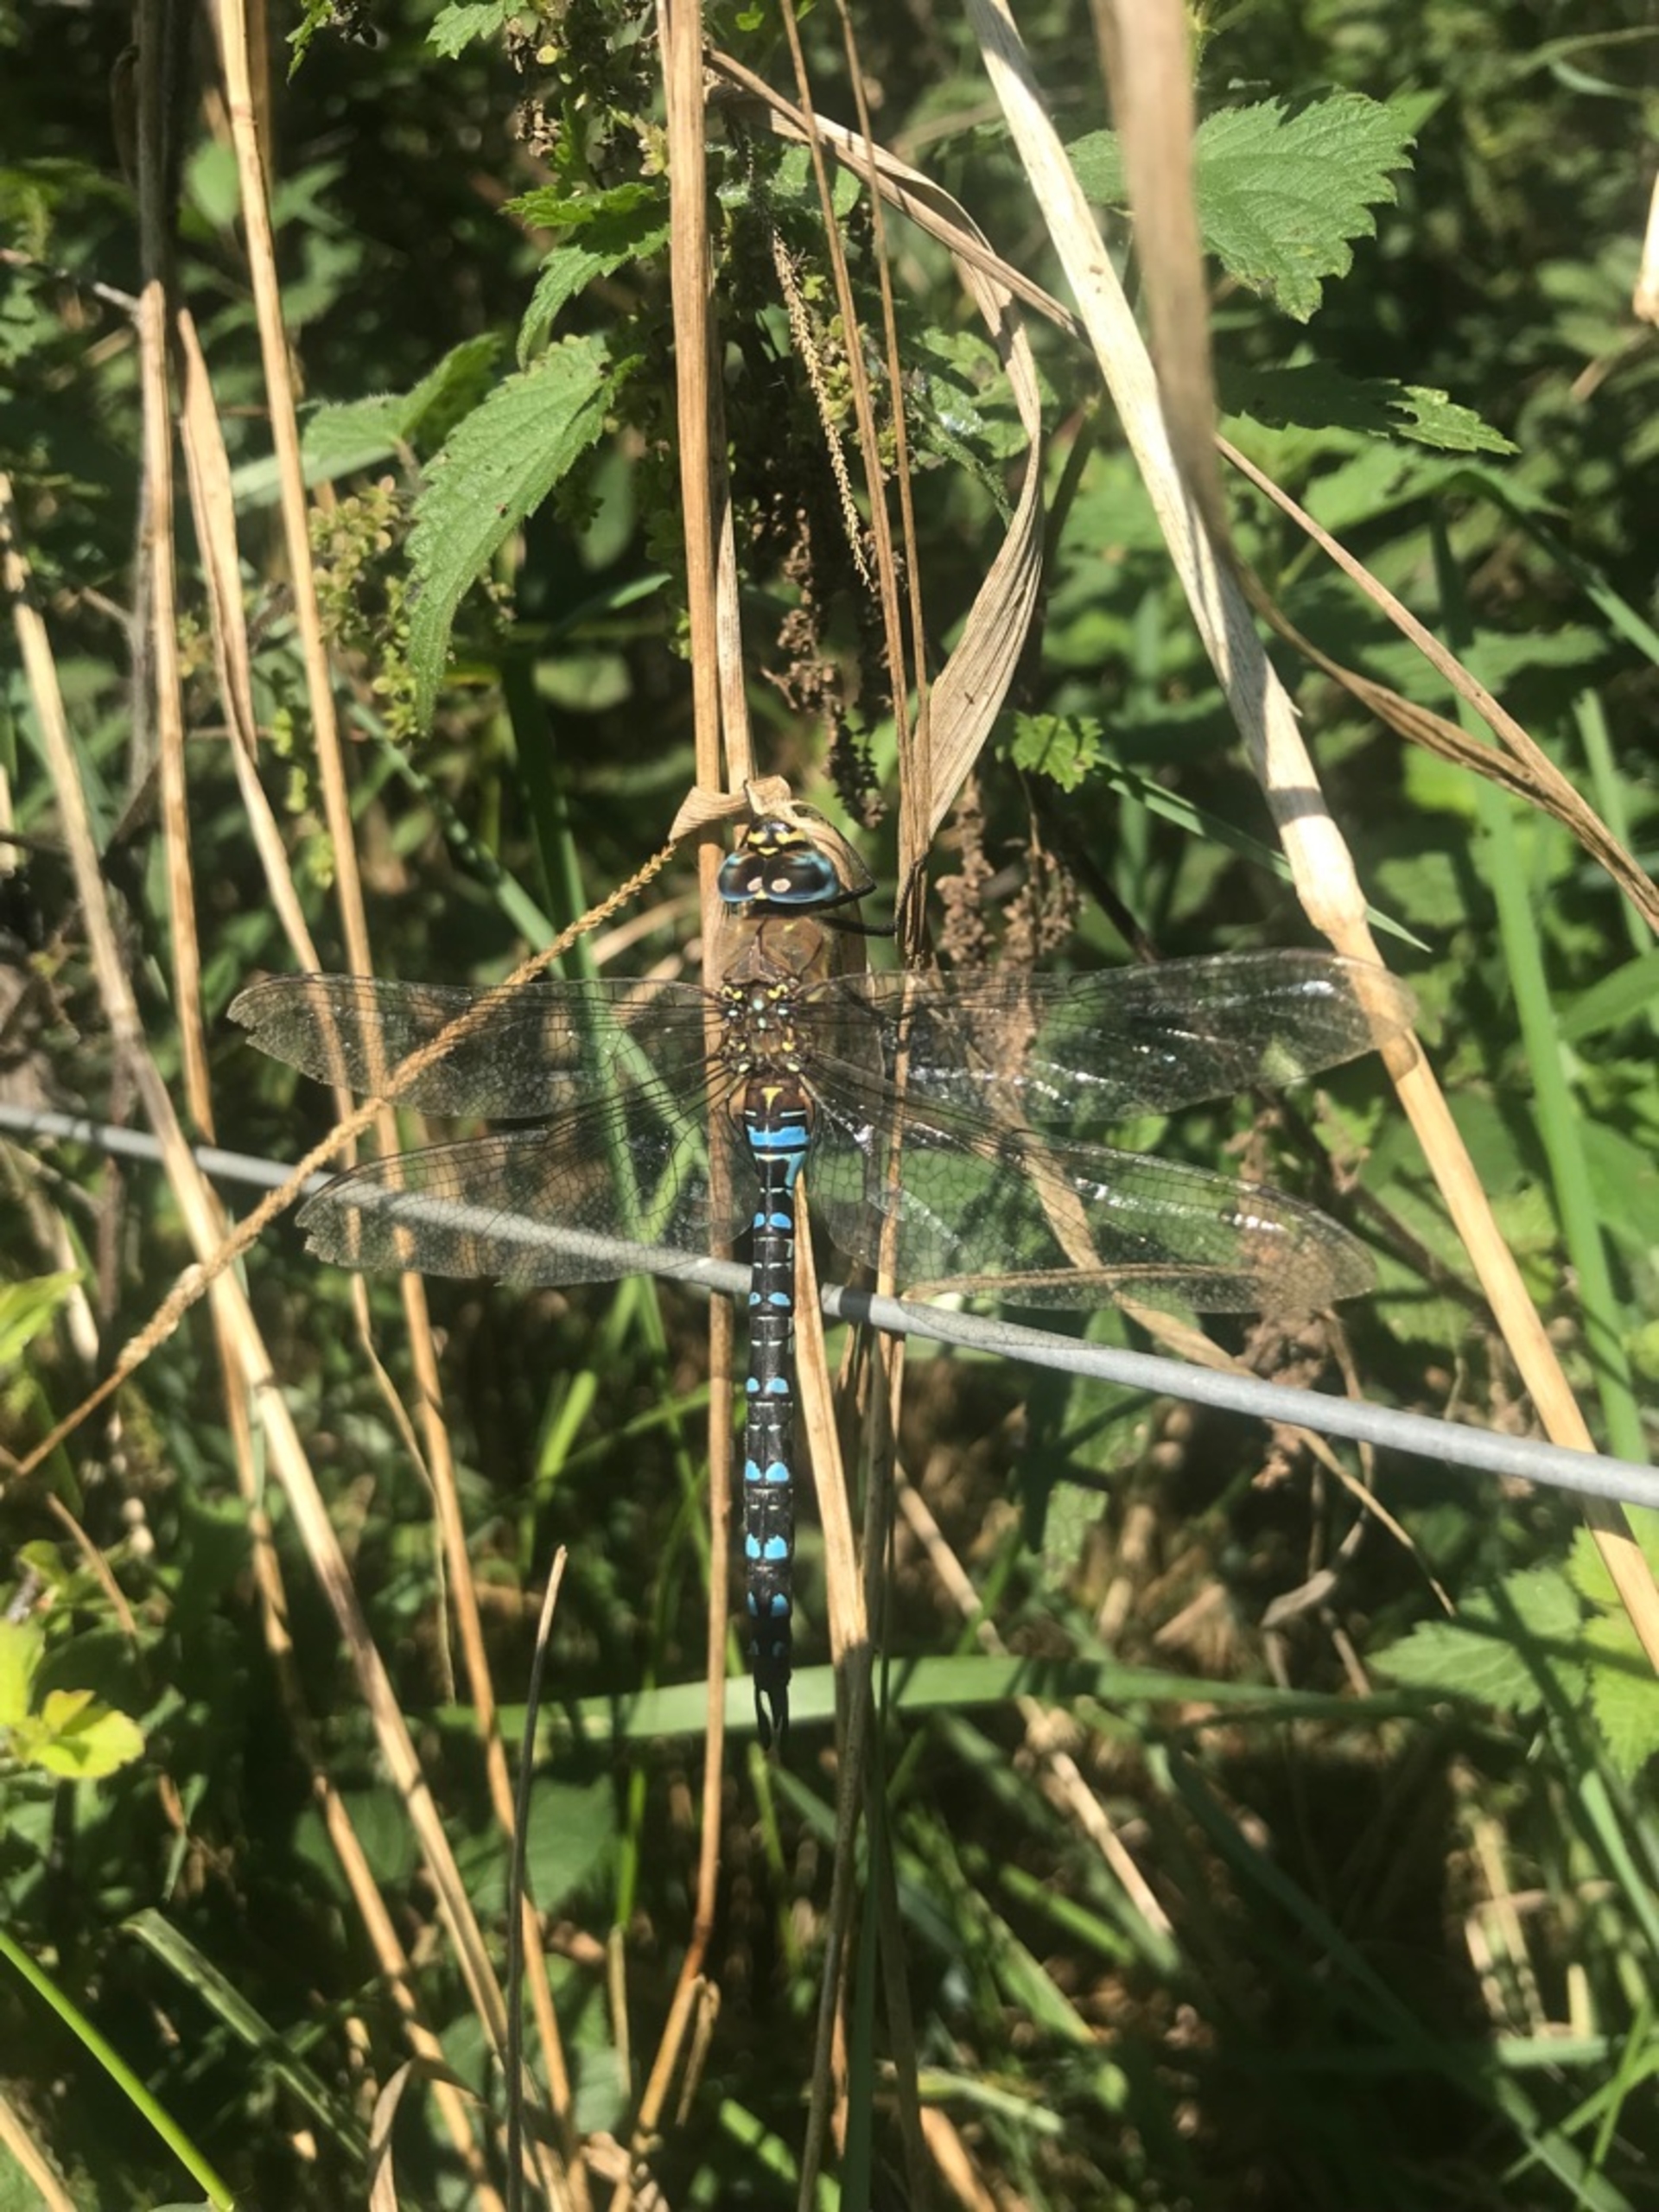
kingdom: Animalia
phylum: Arthropoda
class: Insecta
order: Odonata
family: Aeshnidae
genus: Aeshna
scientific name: Aeshna mixta
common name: Efterårs-mosaikguldsmed
